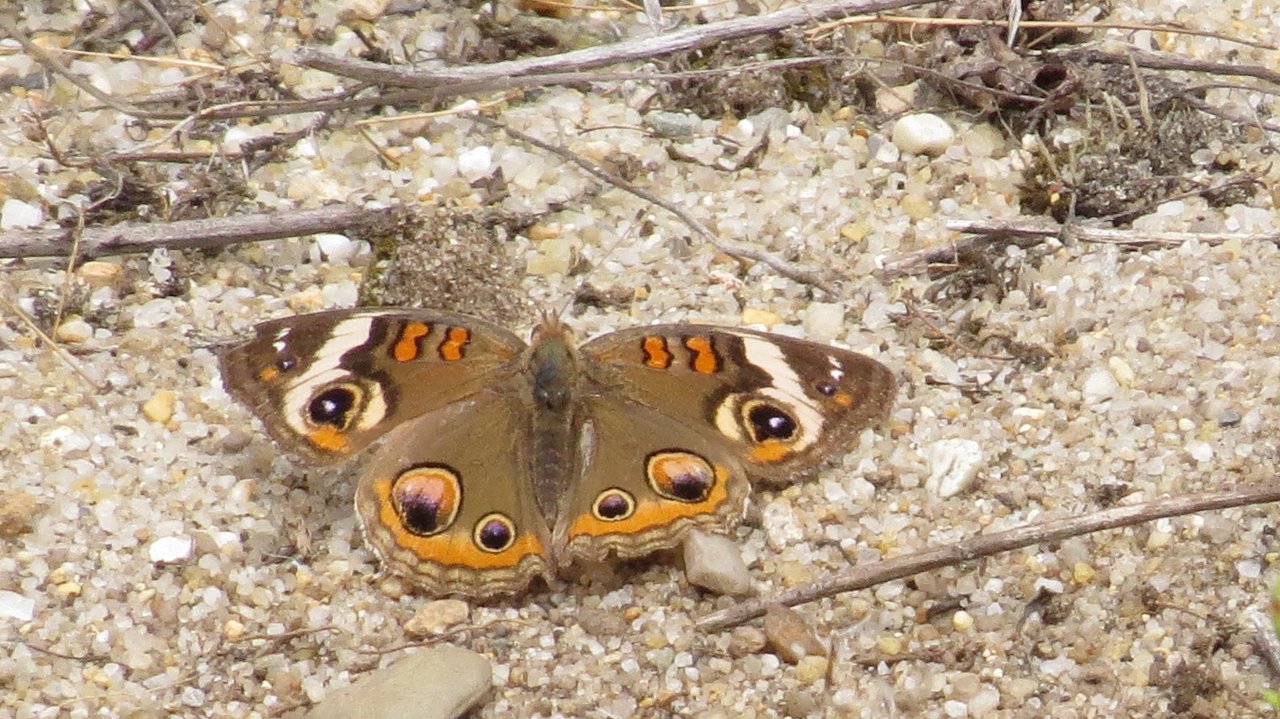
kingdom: Animalia
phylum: Arthropoda
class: Insecta
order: Lepidoptera
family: Nymphalidae
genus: Junonia
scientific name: Junonia coenia
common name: Common Buckeye
